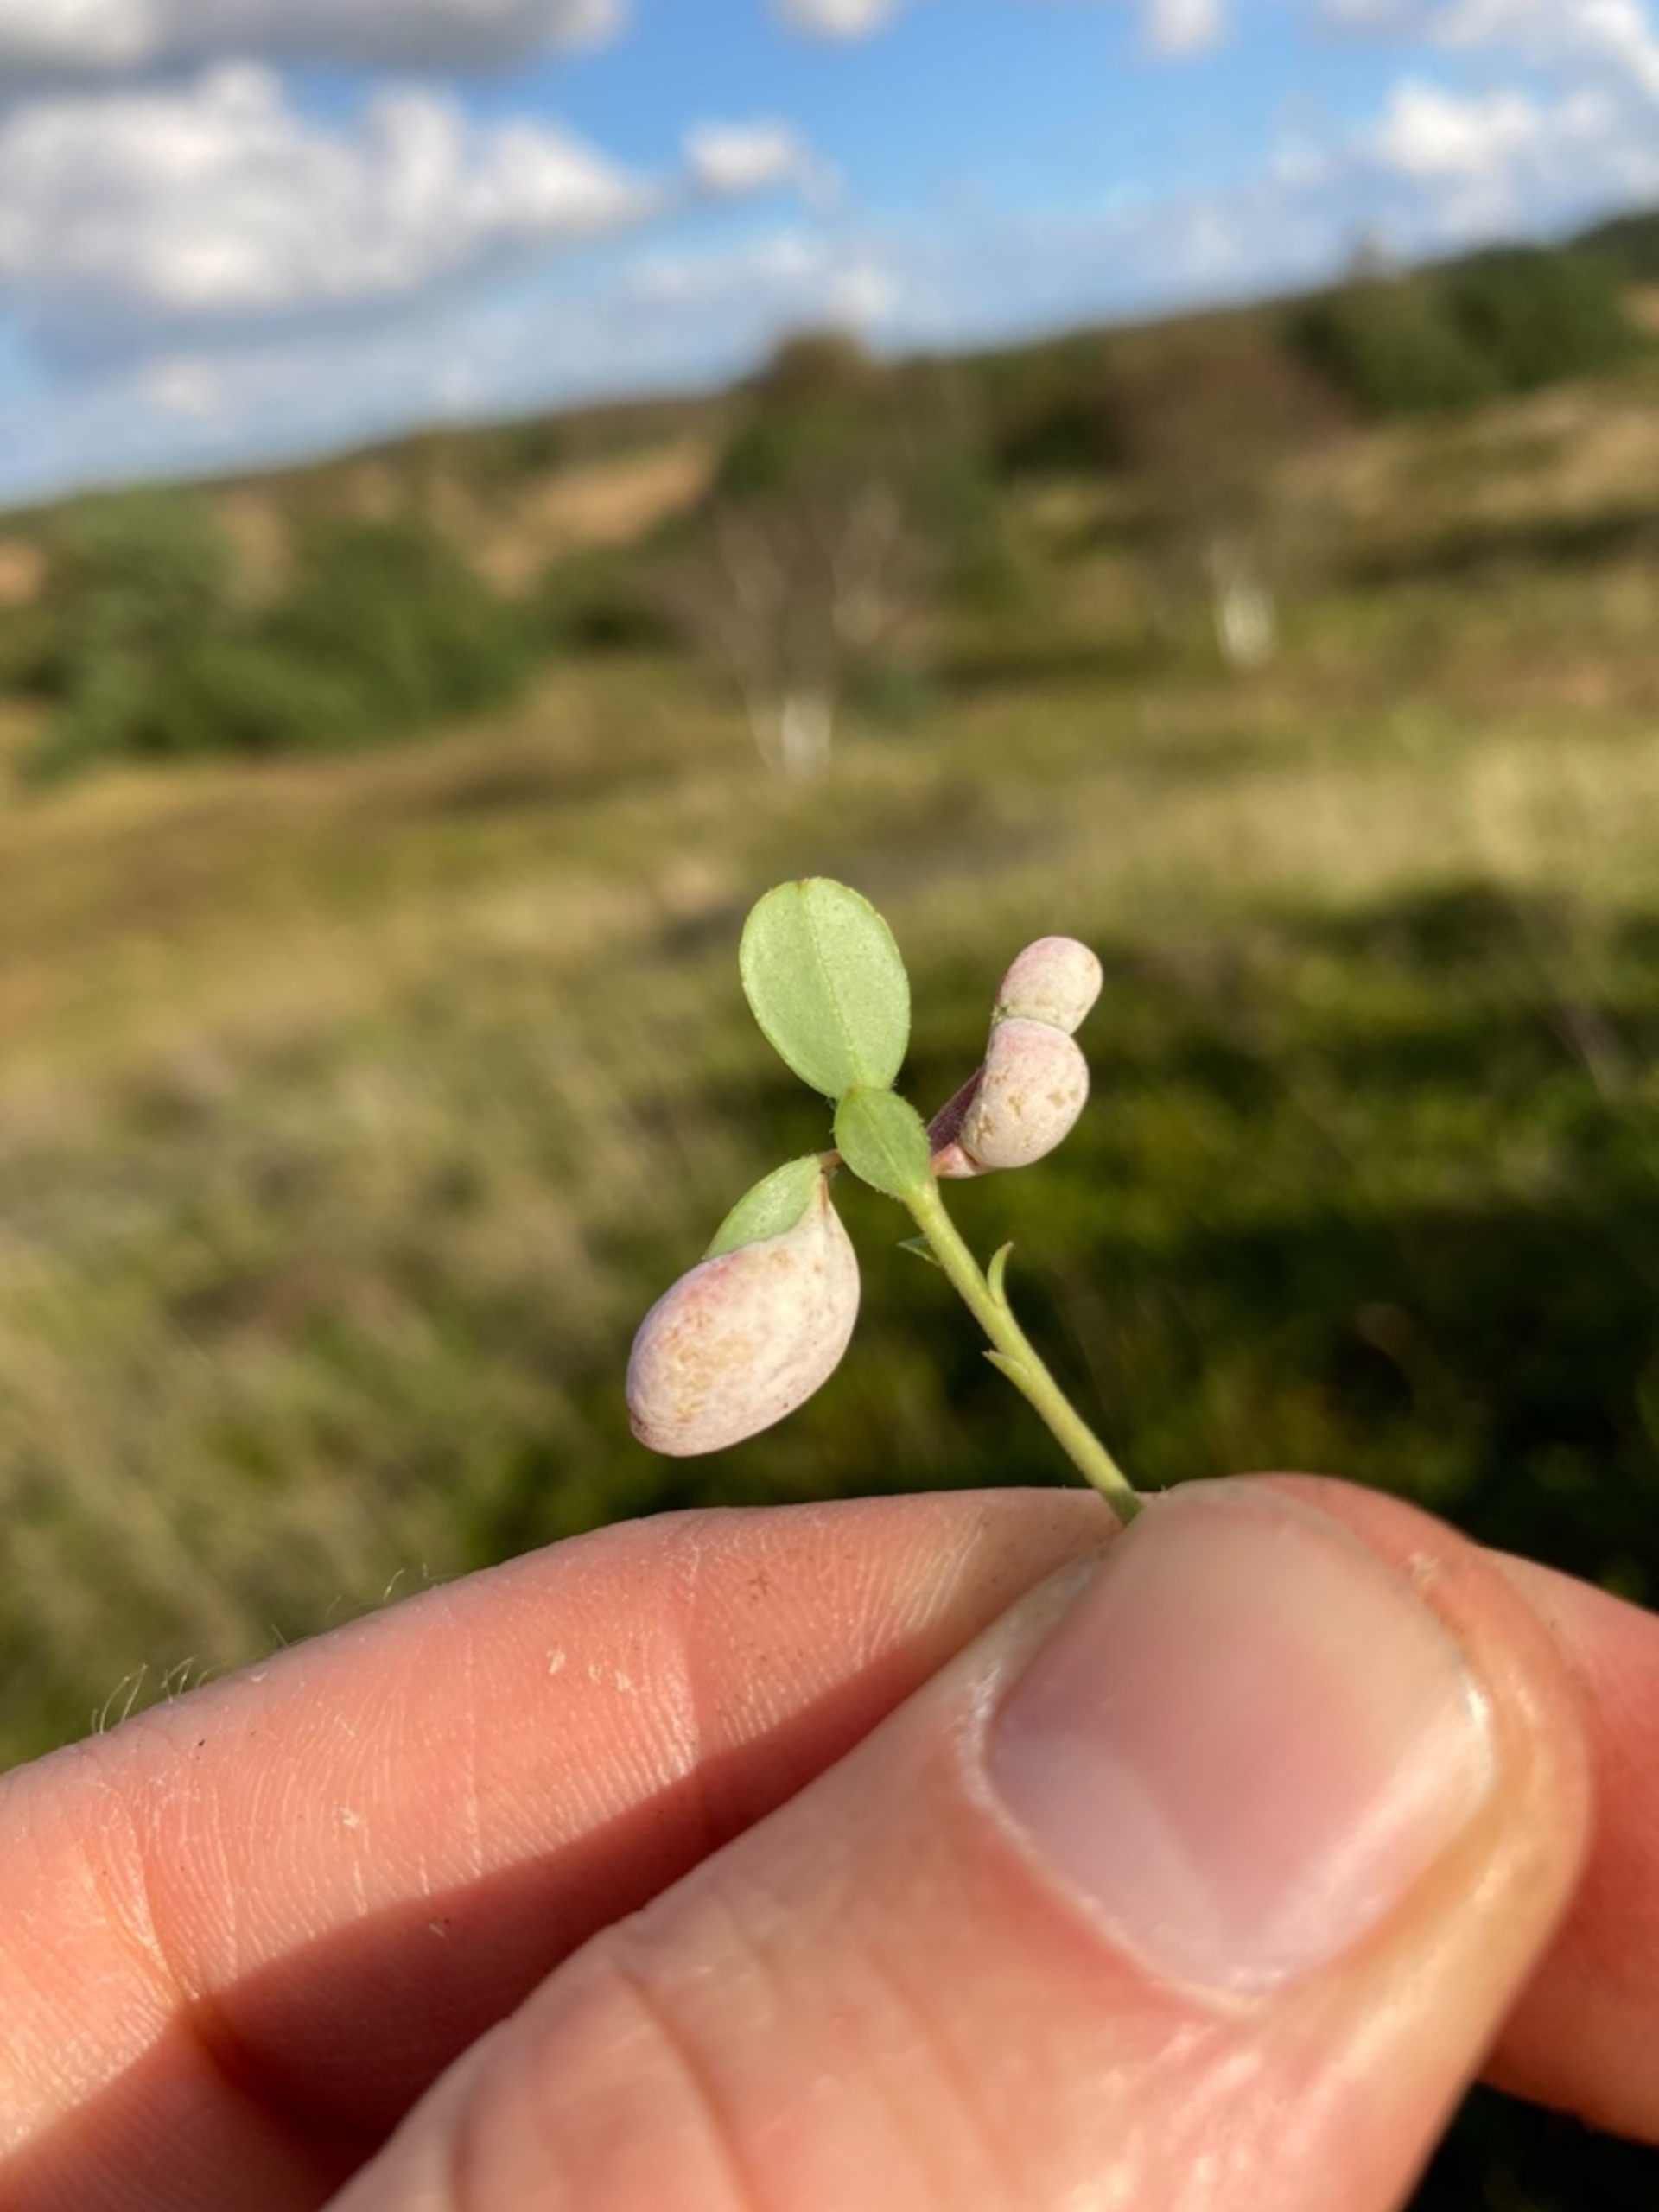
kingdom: Fungi
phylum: Basidiomycota
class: Exobasidiomycetes
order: Exobasidiales
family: Exobasidiaceae
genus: Exobasidium
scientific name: Exobasidium vaccinii
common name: Tyttebærblad-bøllesvamp
